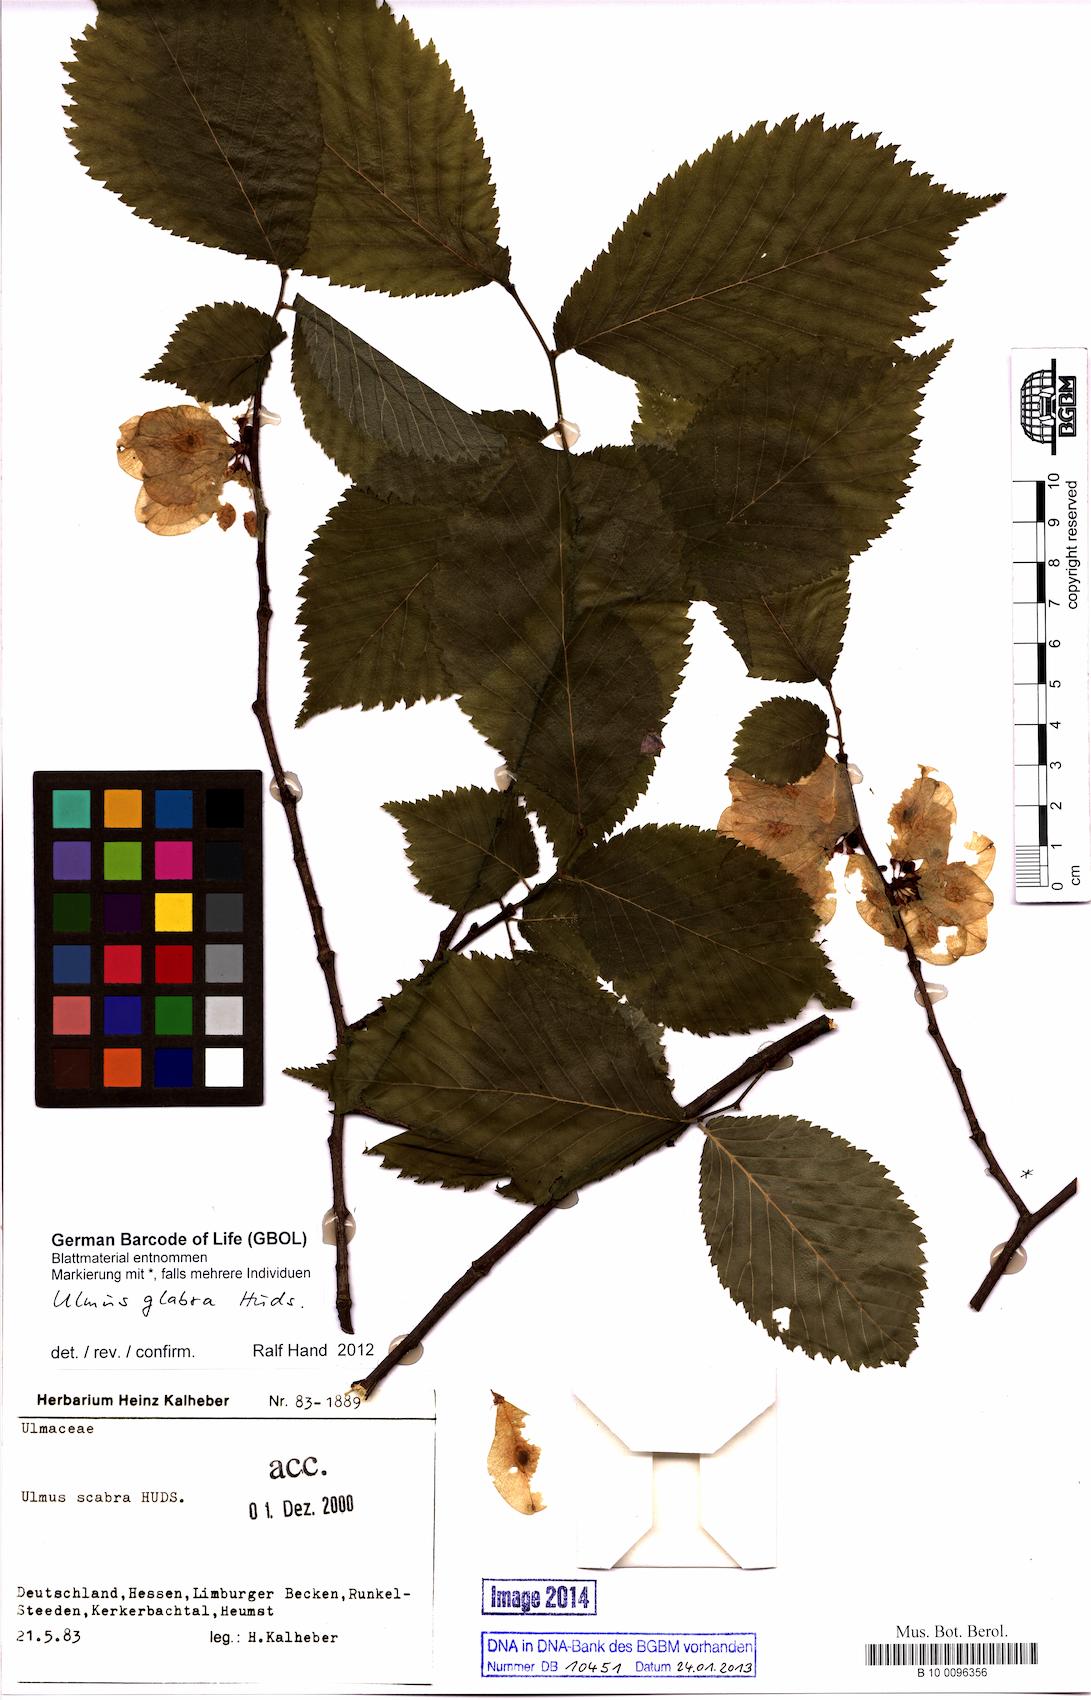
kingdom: Plantae
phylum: Tracheophyta
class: Magnoliopsida
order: Rosales
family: Ulmaceae
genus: Ulmus
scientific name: Ulmus glabra
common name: Wych elm
